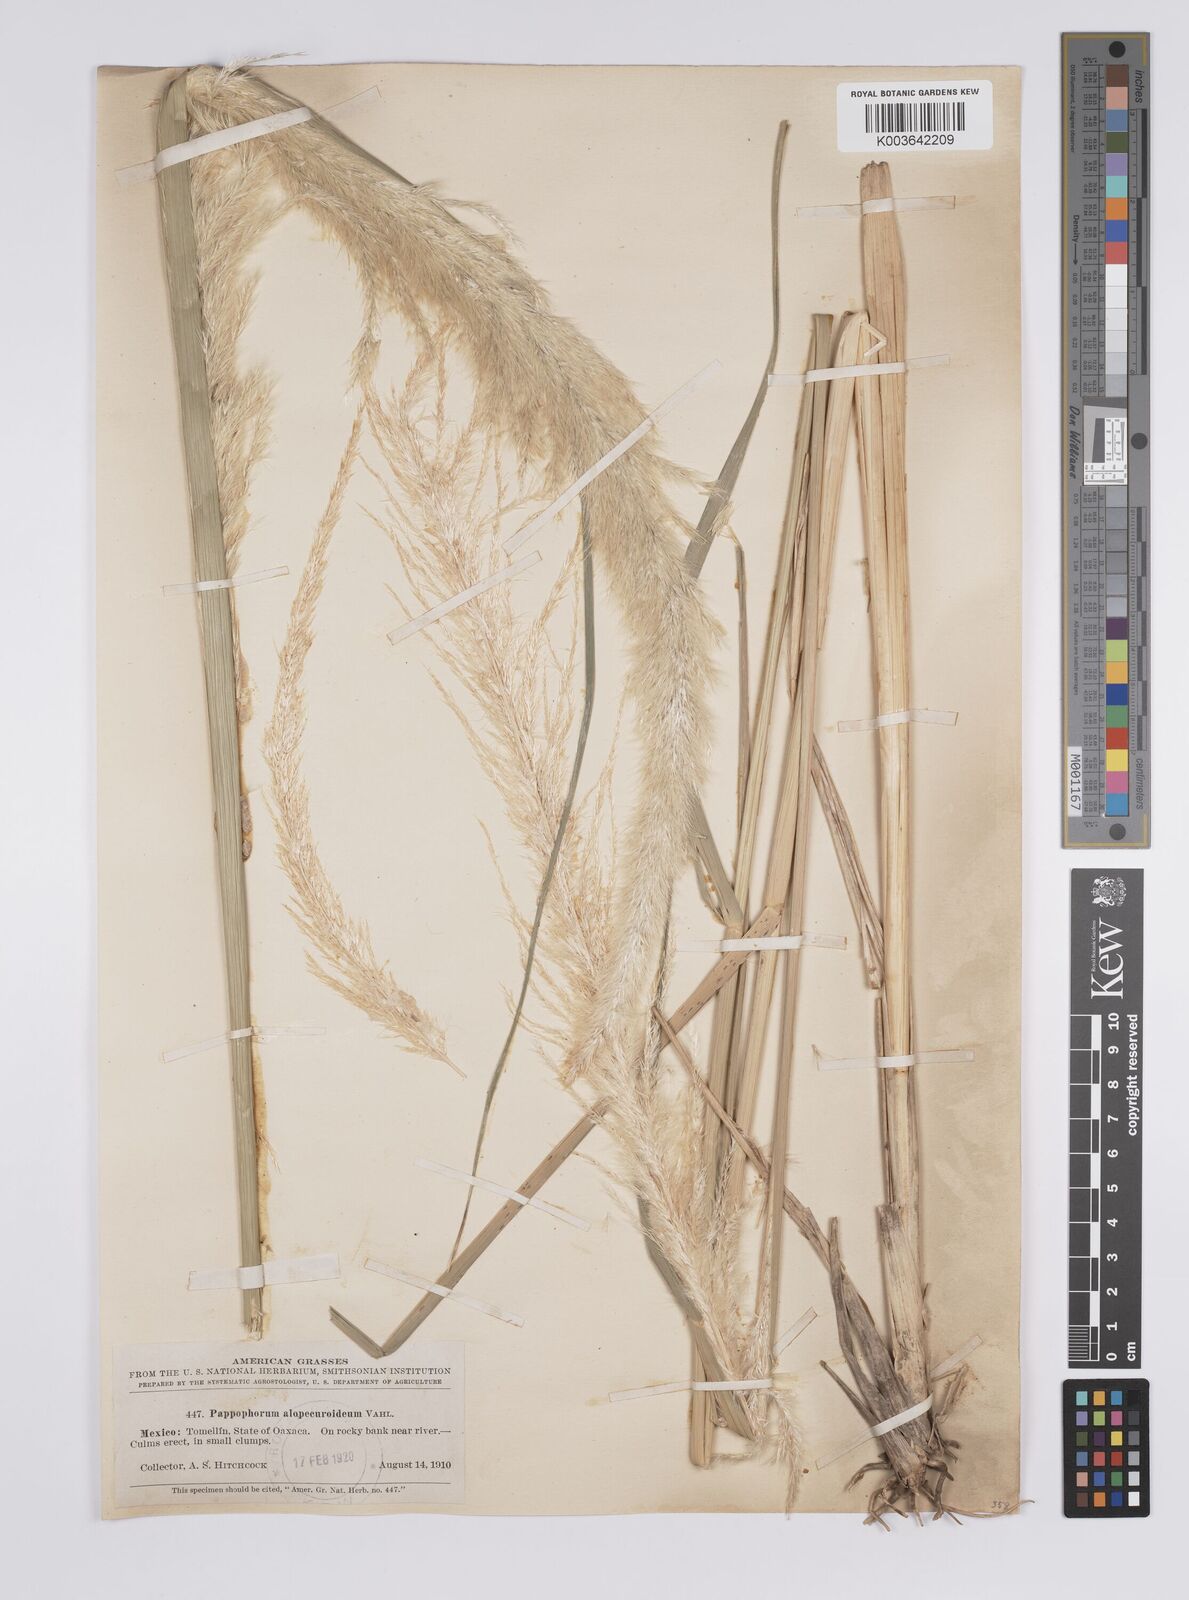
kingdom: Plantae
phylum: Tracheophyta
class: Liliopsida
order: Poales
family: Poaceae
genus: Pappophorum
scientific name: Pappophorum pappiferum
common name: Crabgrass
